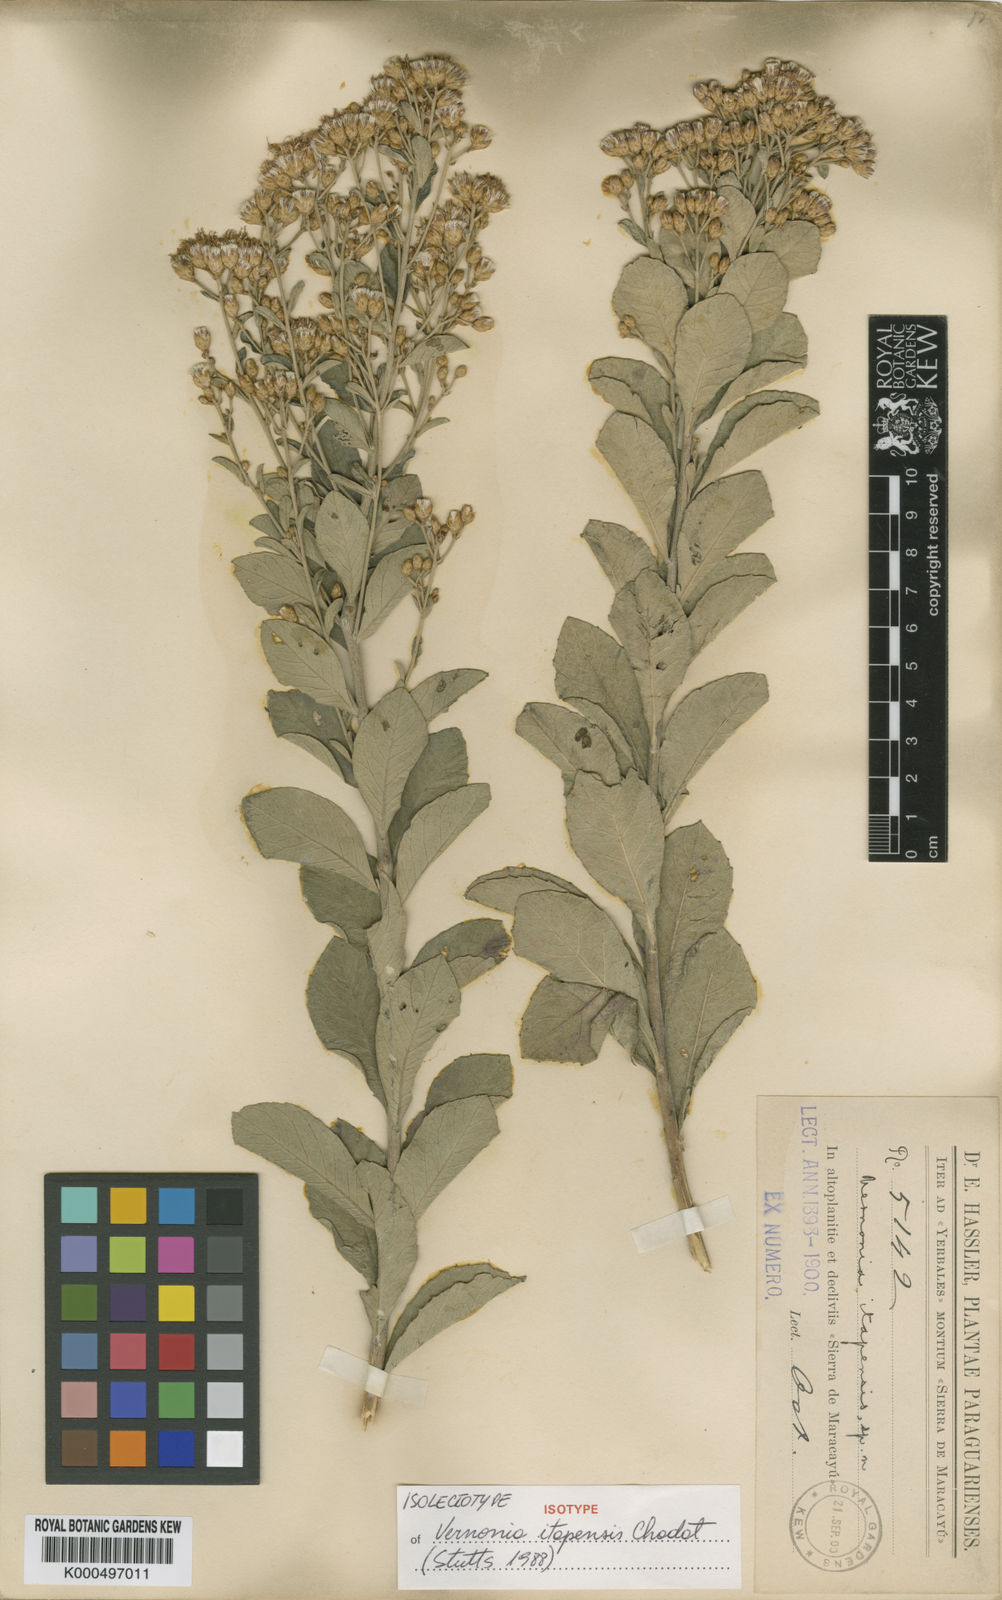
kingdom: Plantae
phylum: Tracheophyta
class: Magnoliopsida
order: Asterales
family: Asteraceae
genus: Vernonanthura
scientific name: Vernonanthura cuneifolia
